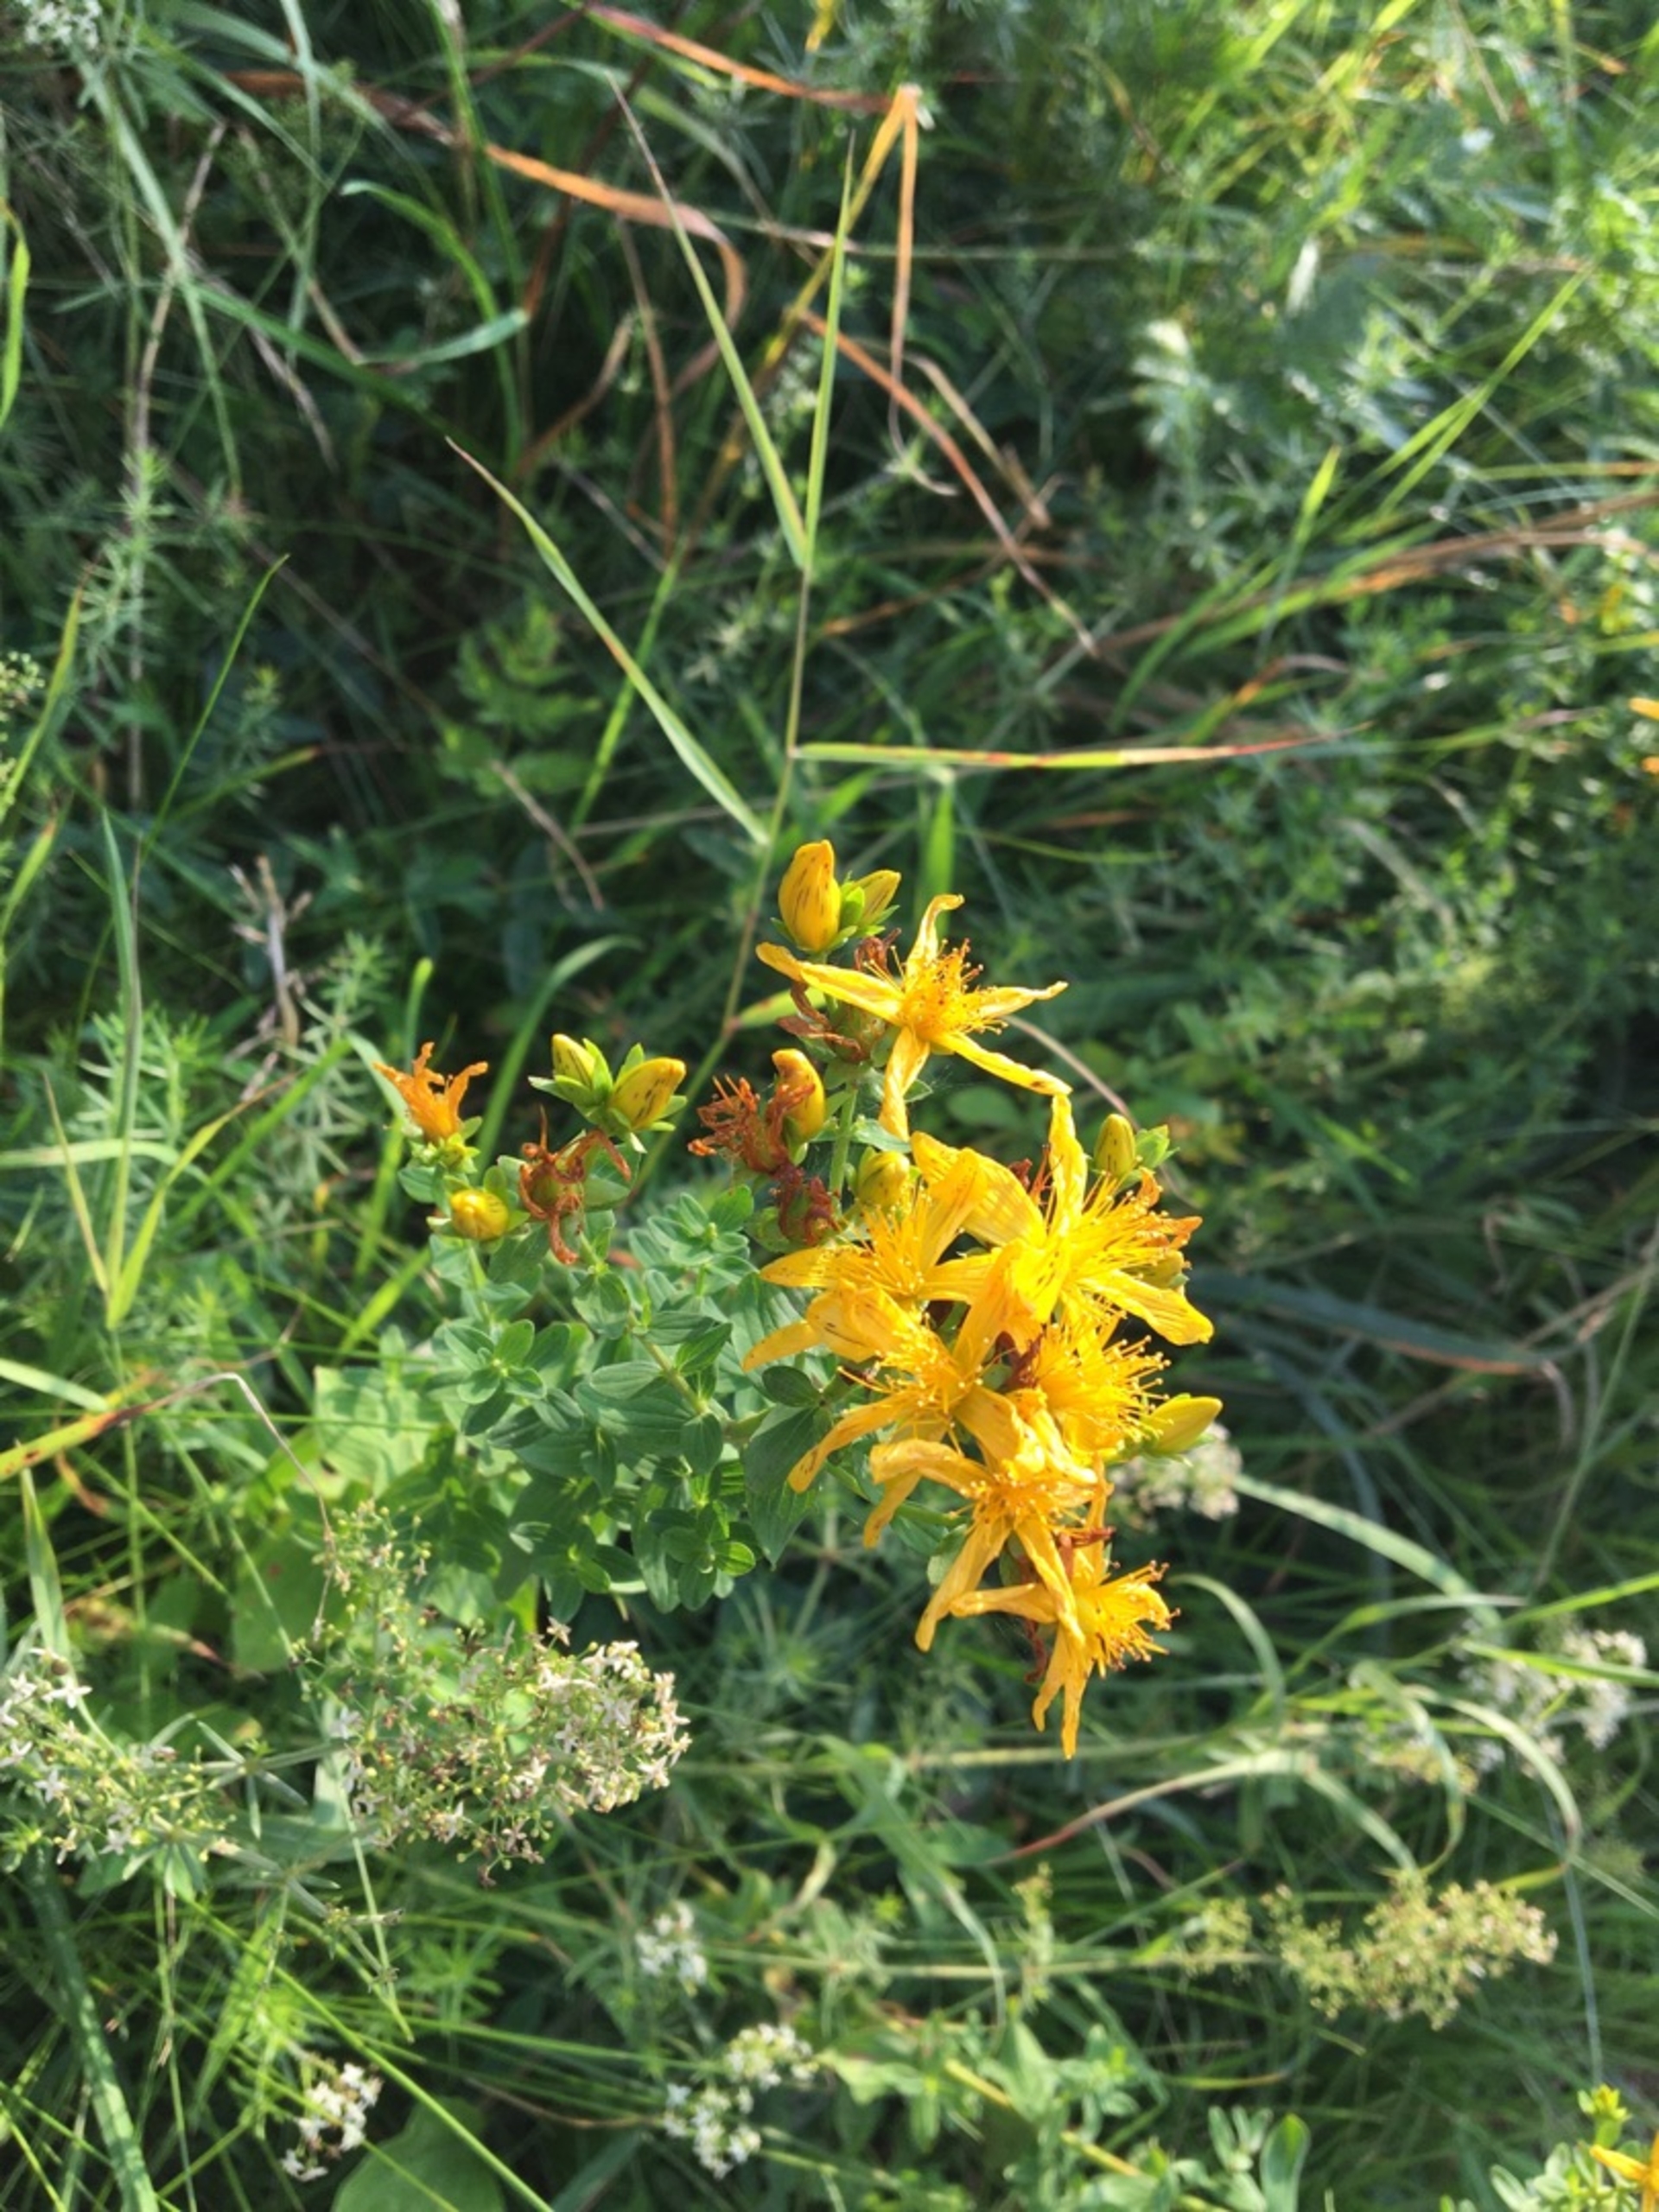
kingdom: Plantae
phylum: Tracheophyta
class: Magnoliopsida
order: Malpighiales
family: Hypericaceae
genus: Hypericum
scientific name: Hypericum perforatum
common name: Prikbladet perikon
